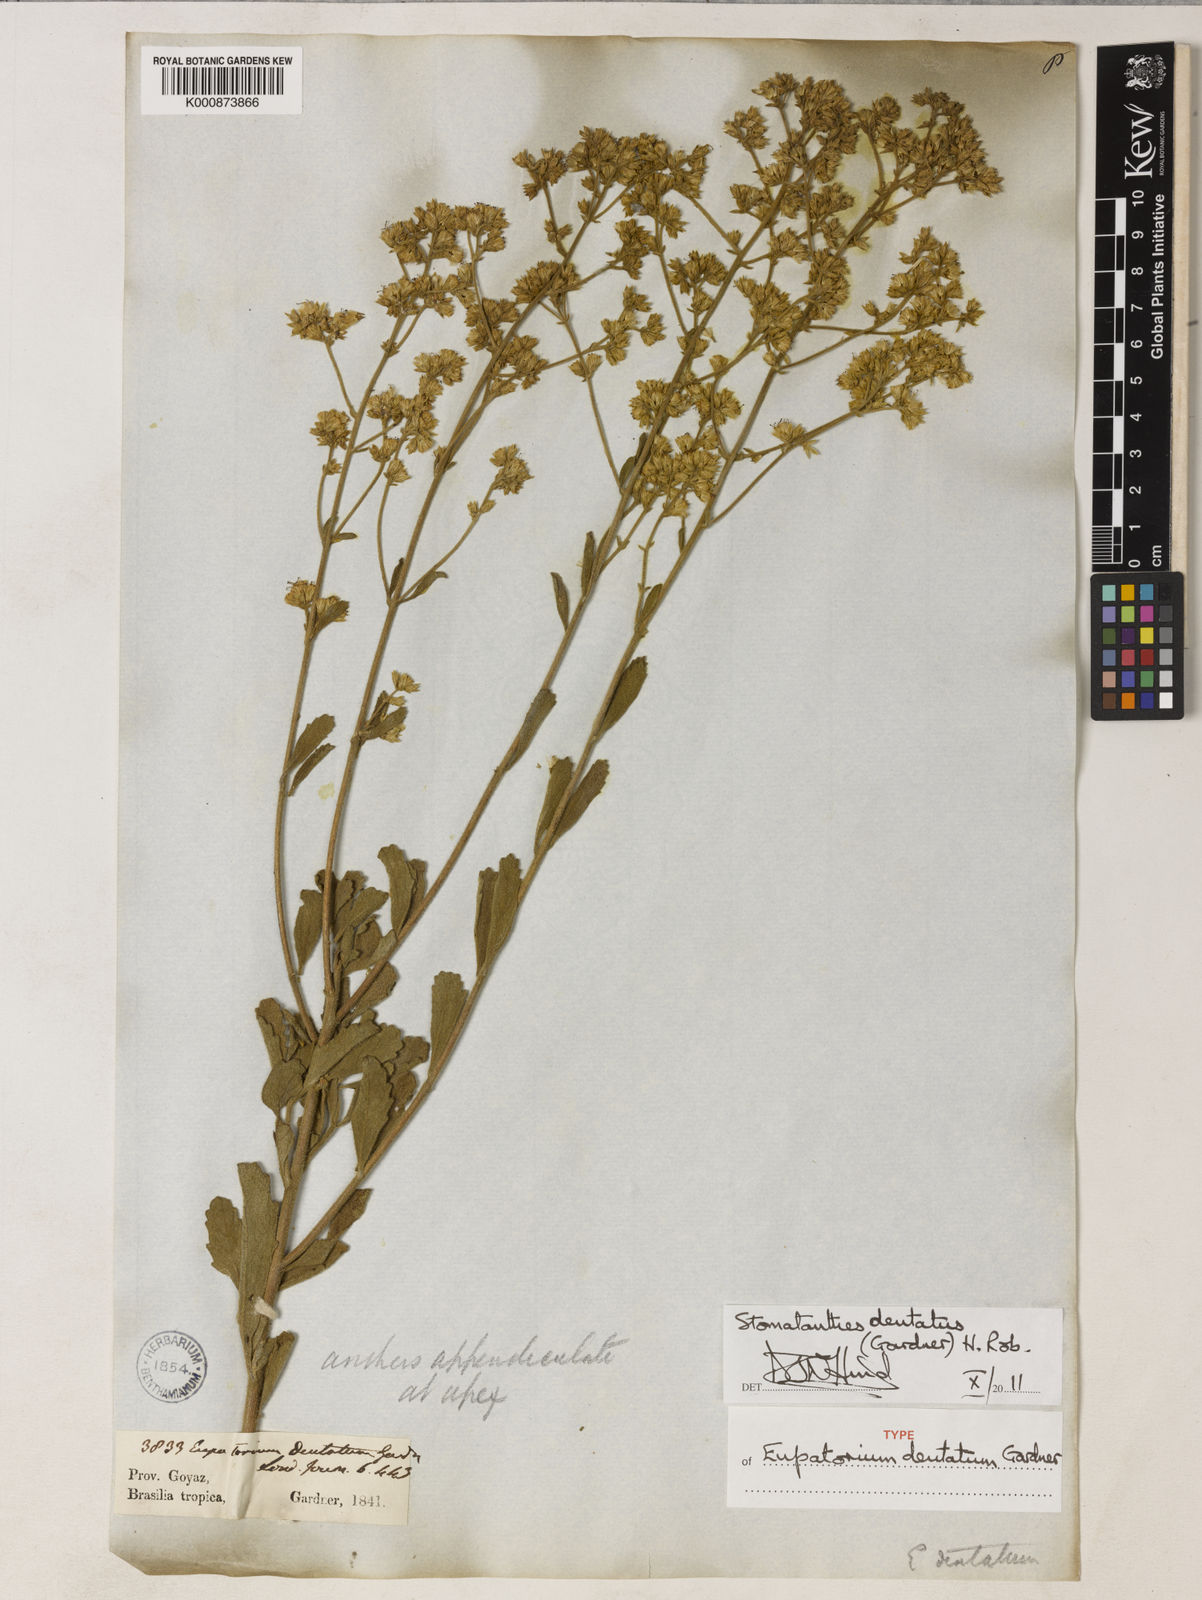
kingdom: Plantae
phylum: Tracheophyta
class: Magnoliopsida
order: Asterales
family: Asteraceae
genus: Stomatanthes
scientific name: Stomatanthes dentatus
